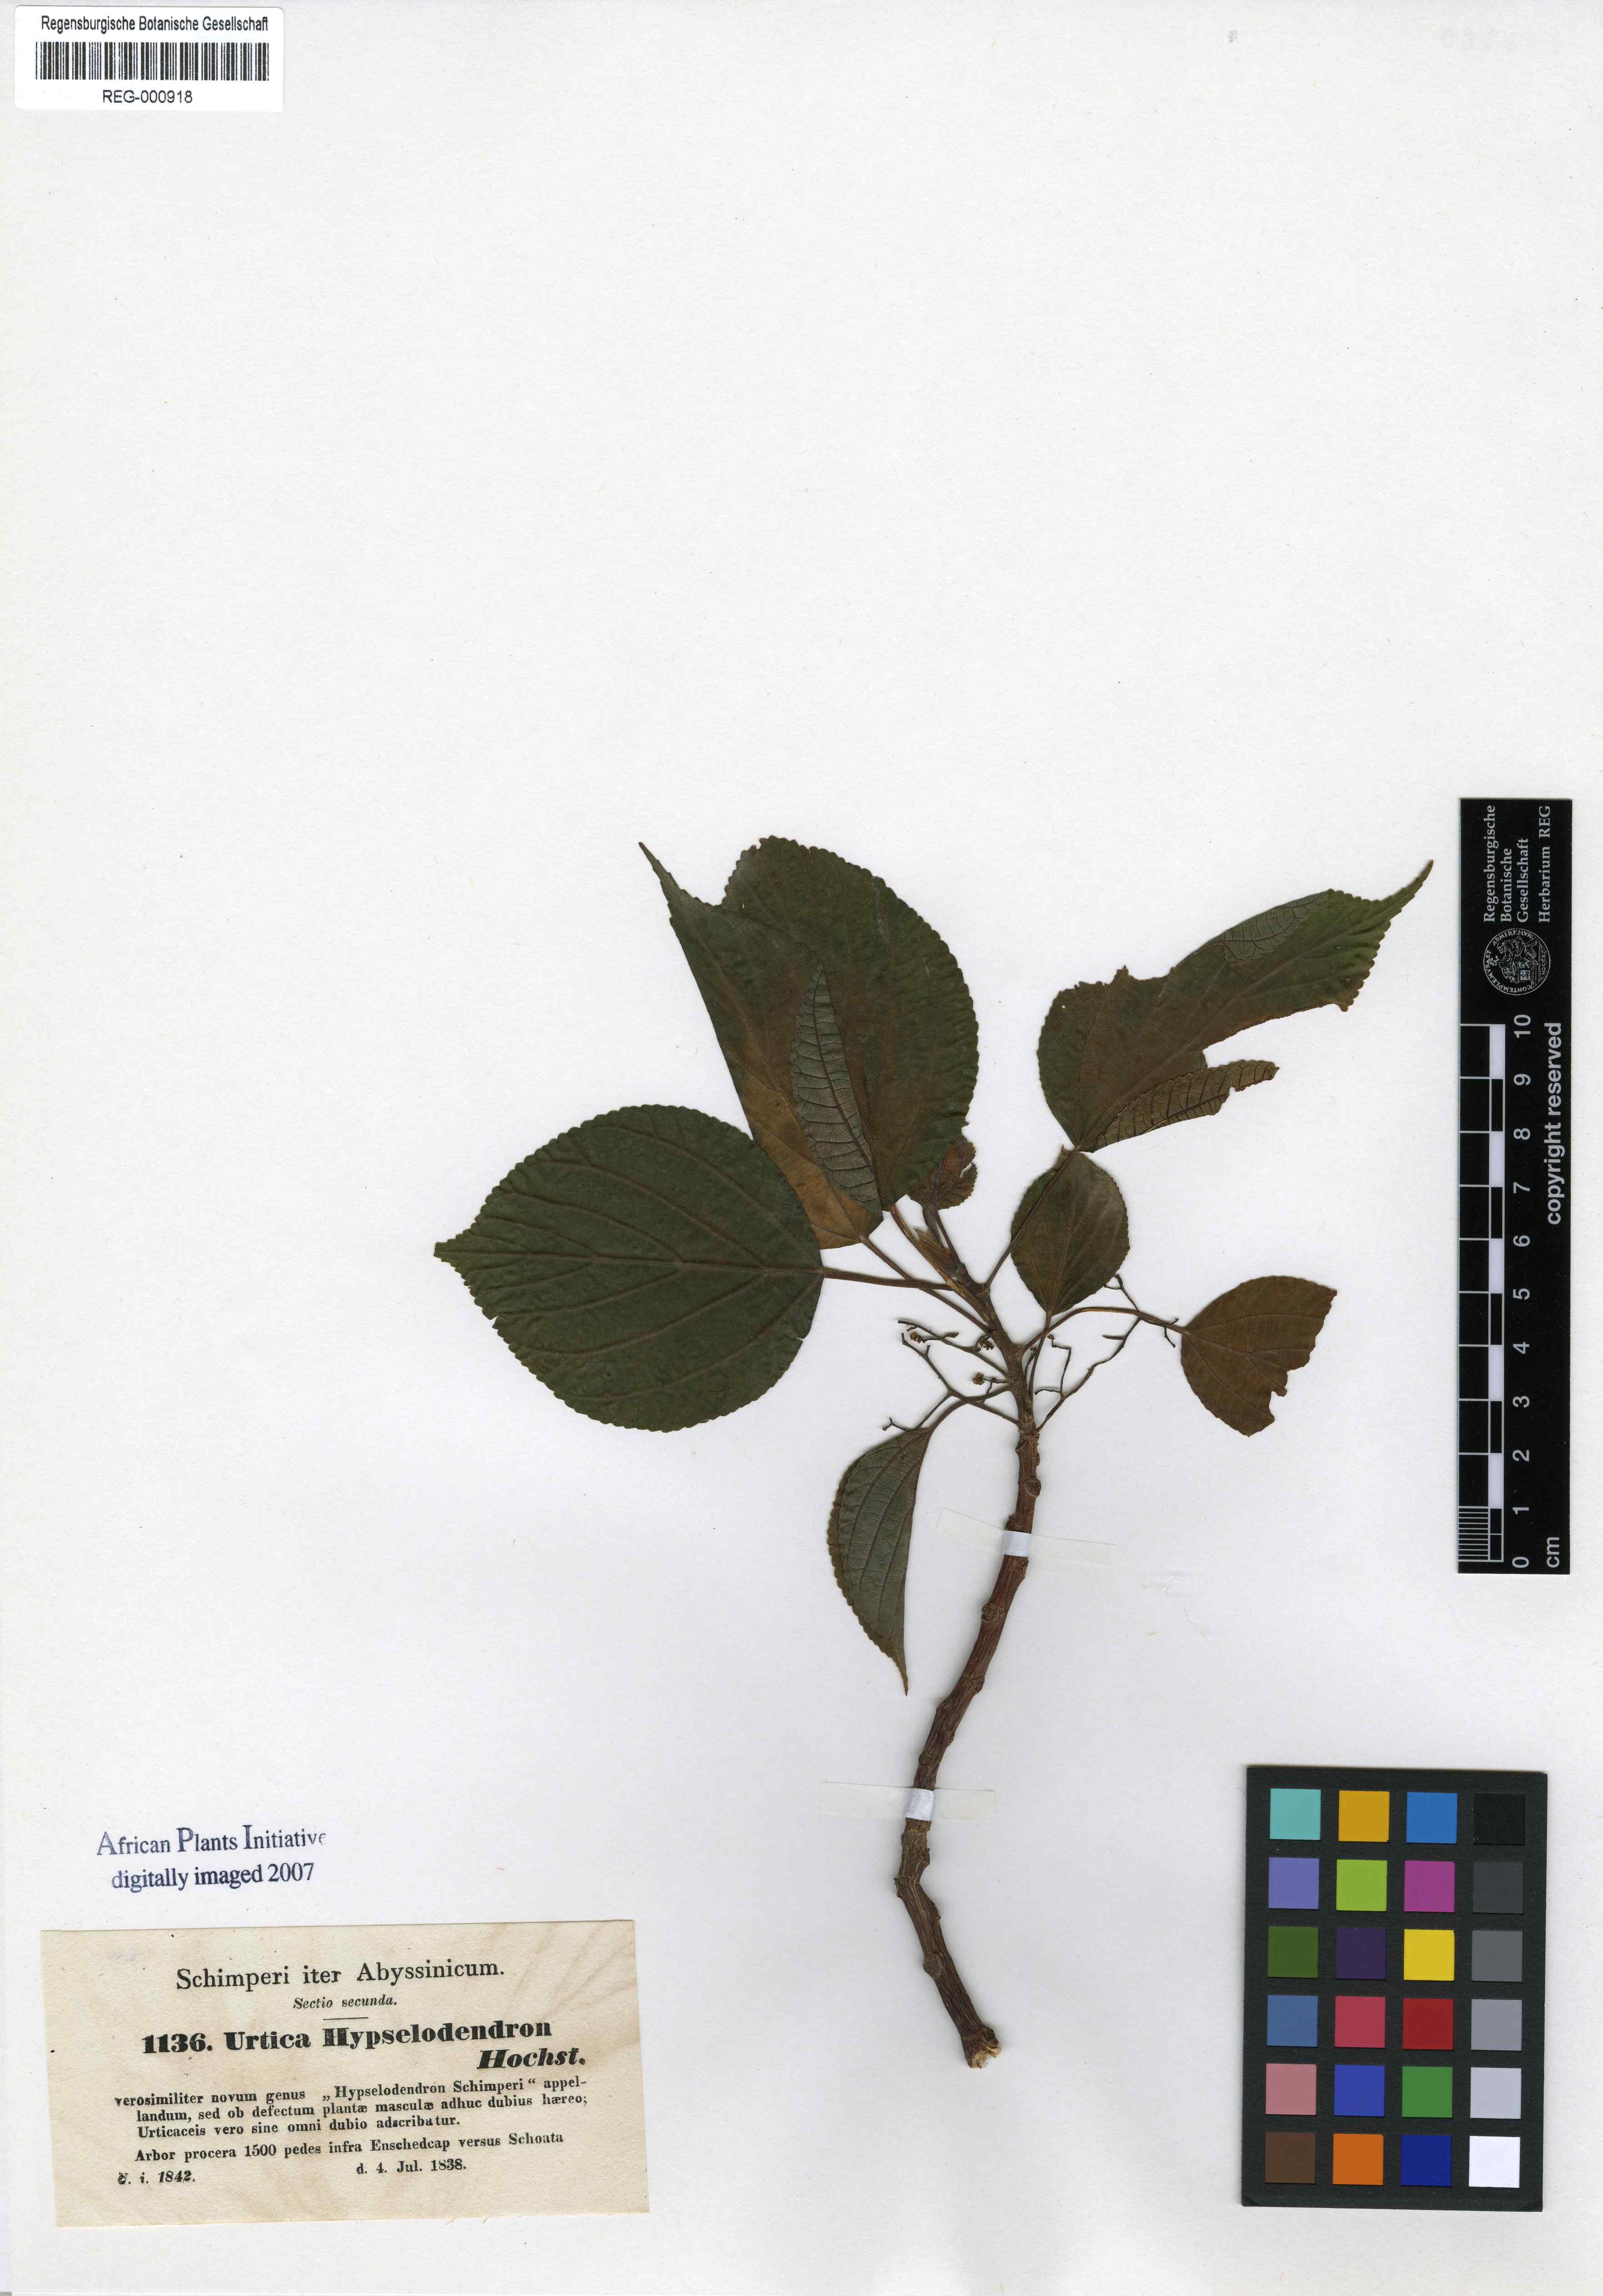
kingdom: Plantae
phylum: Tracheophyta
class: Magnoliopsida
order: Rosales
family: Urticaceae
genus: Scepocarpus
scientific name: Scepocarpus hypselodendron
